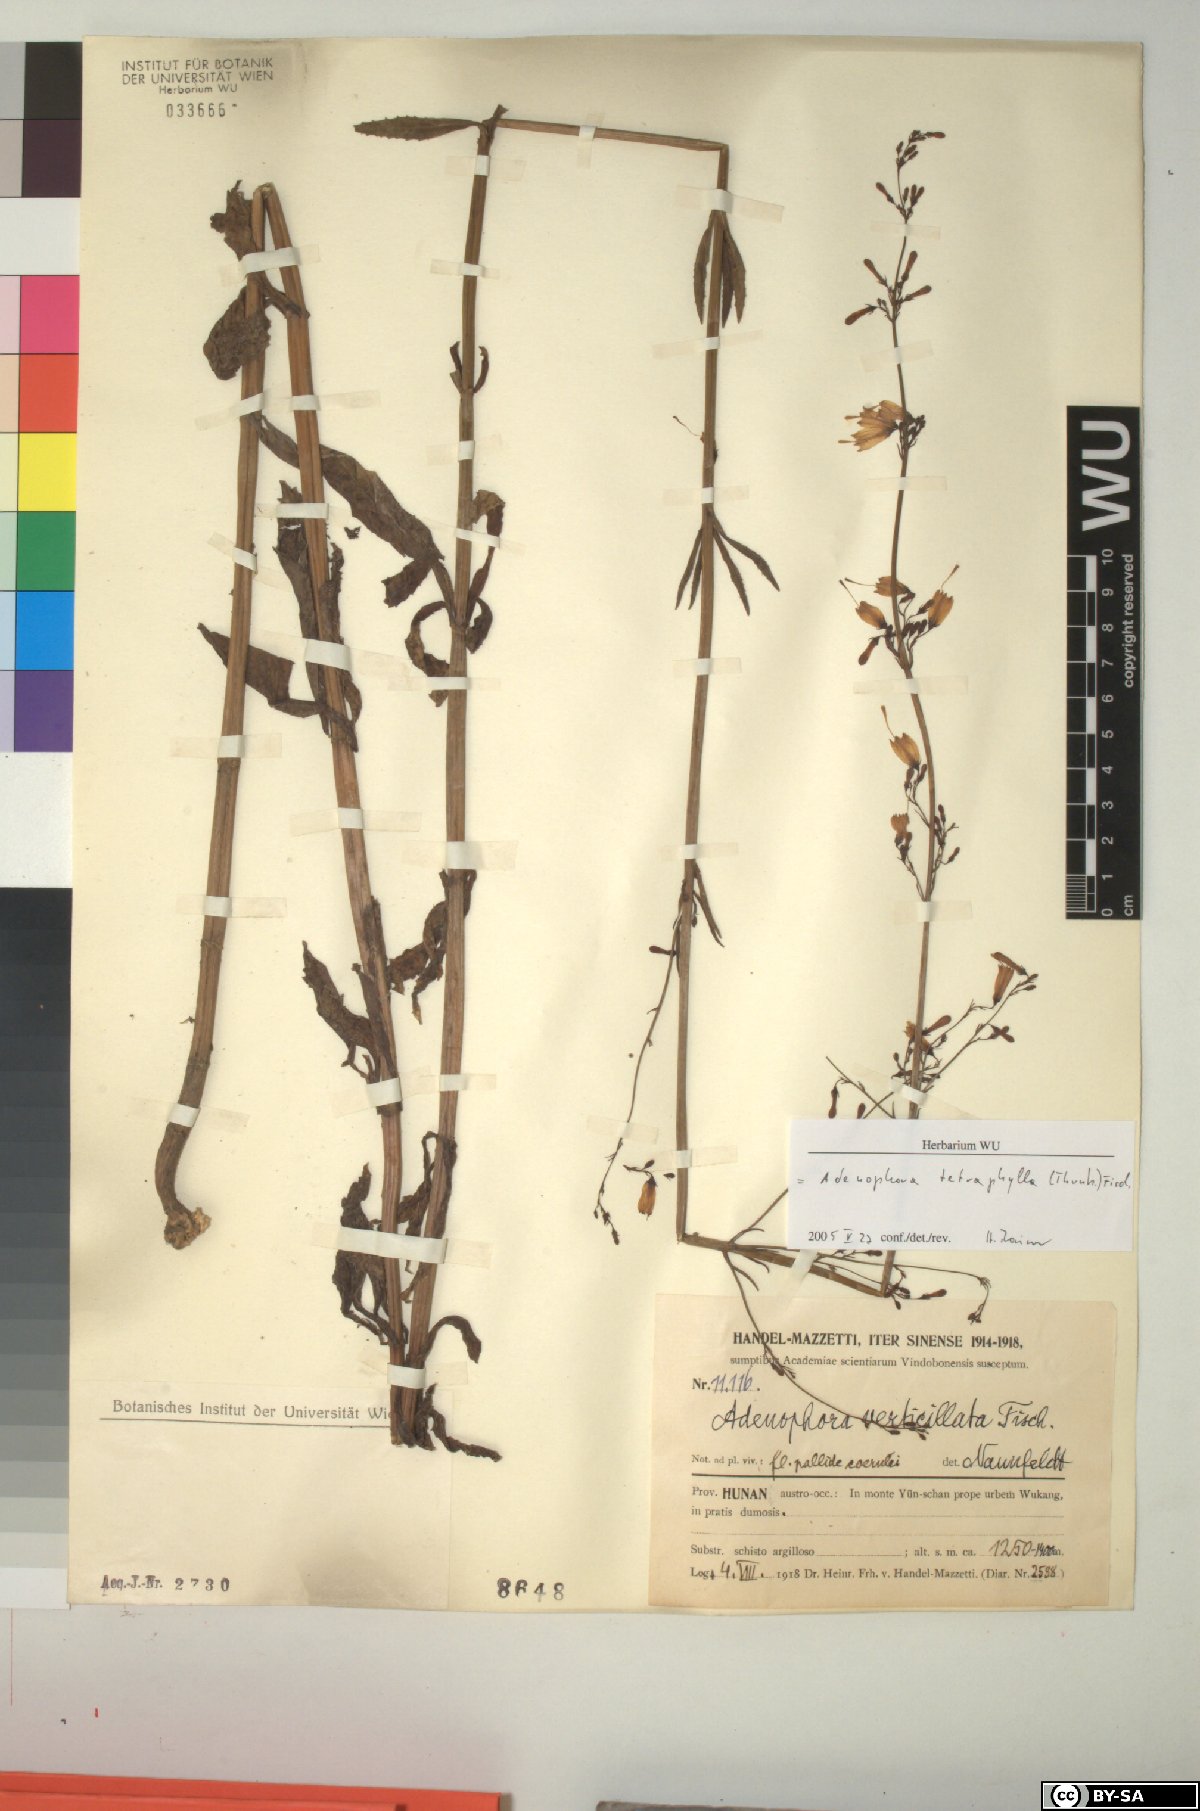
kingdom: Plantae
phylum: Tracheophyta
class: Magnoliopsida
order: Asterales
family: Campanulaceae
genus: Adenophora
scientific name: Adenophora triphylla
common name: Giant-bellflower
